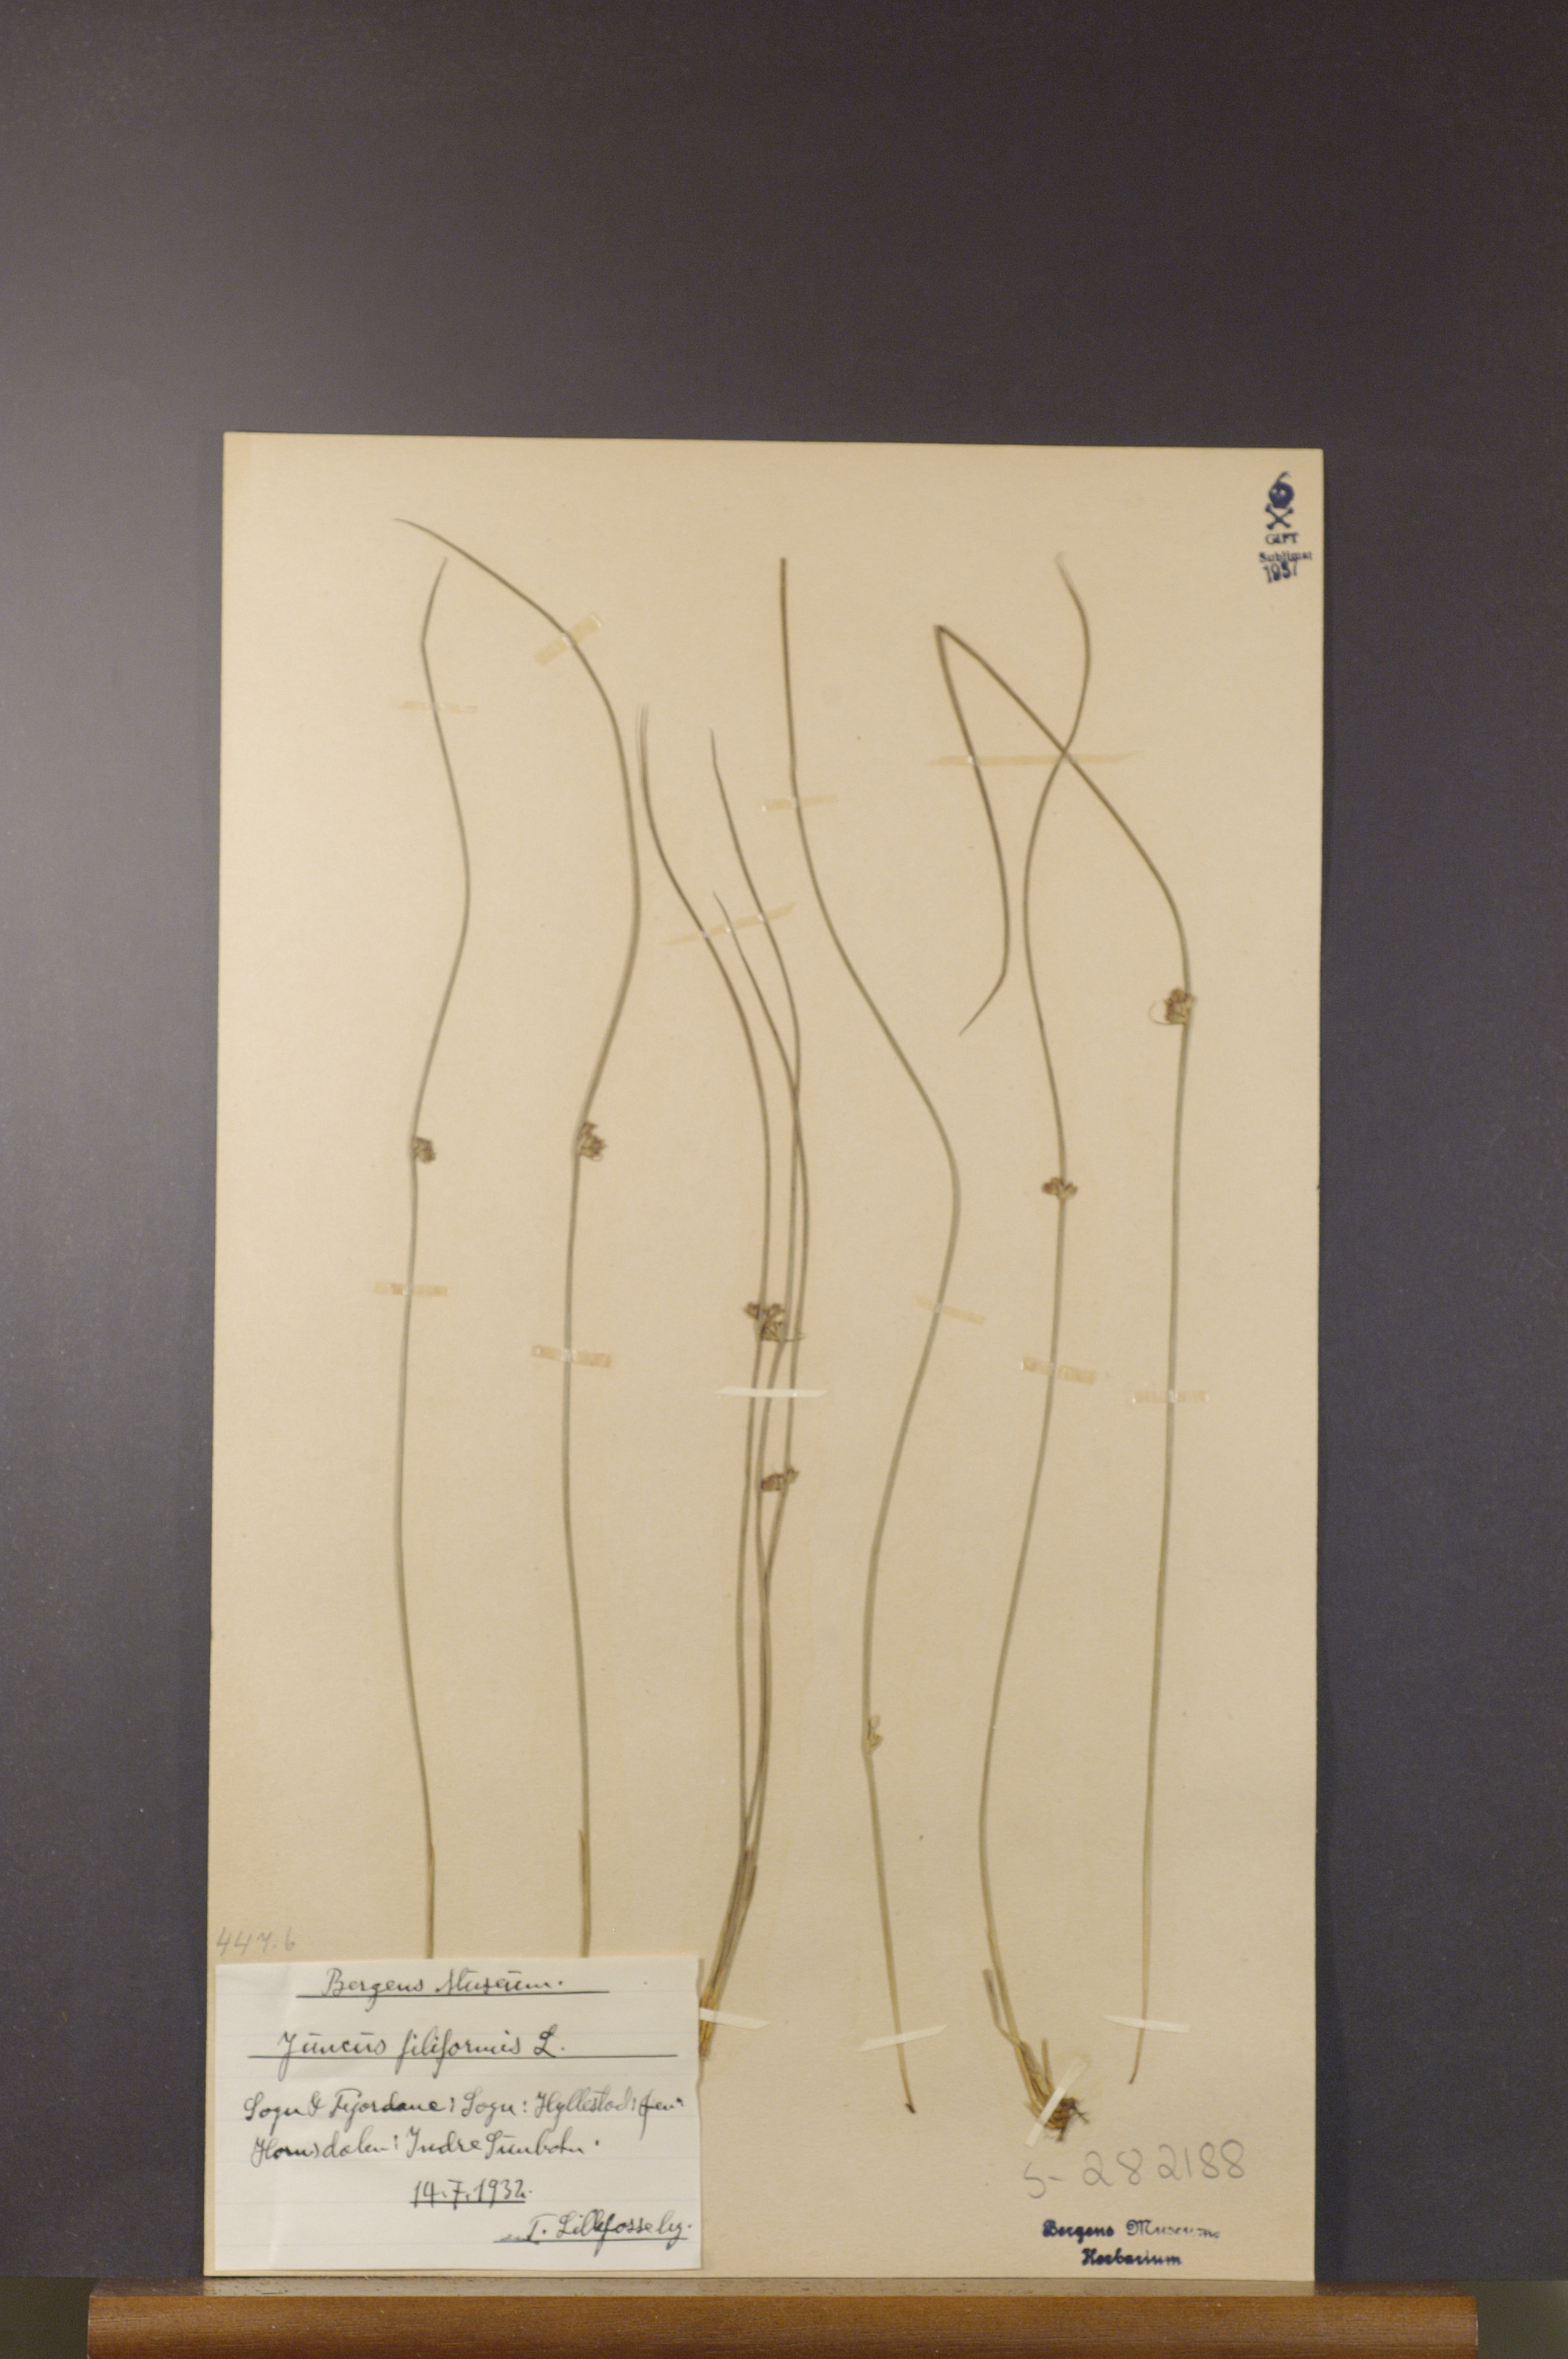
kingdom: Plantae
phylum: Tracheophyta
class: Liliopsida
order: Poales
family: Juncaceae
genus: Juncus
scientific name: Juncus filiformis
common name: Thread rush
